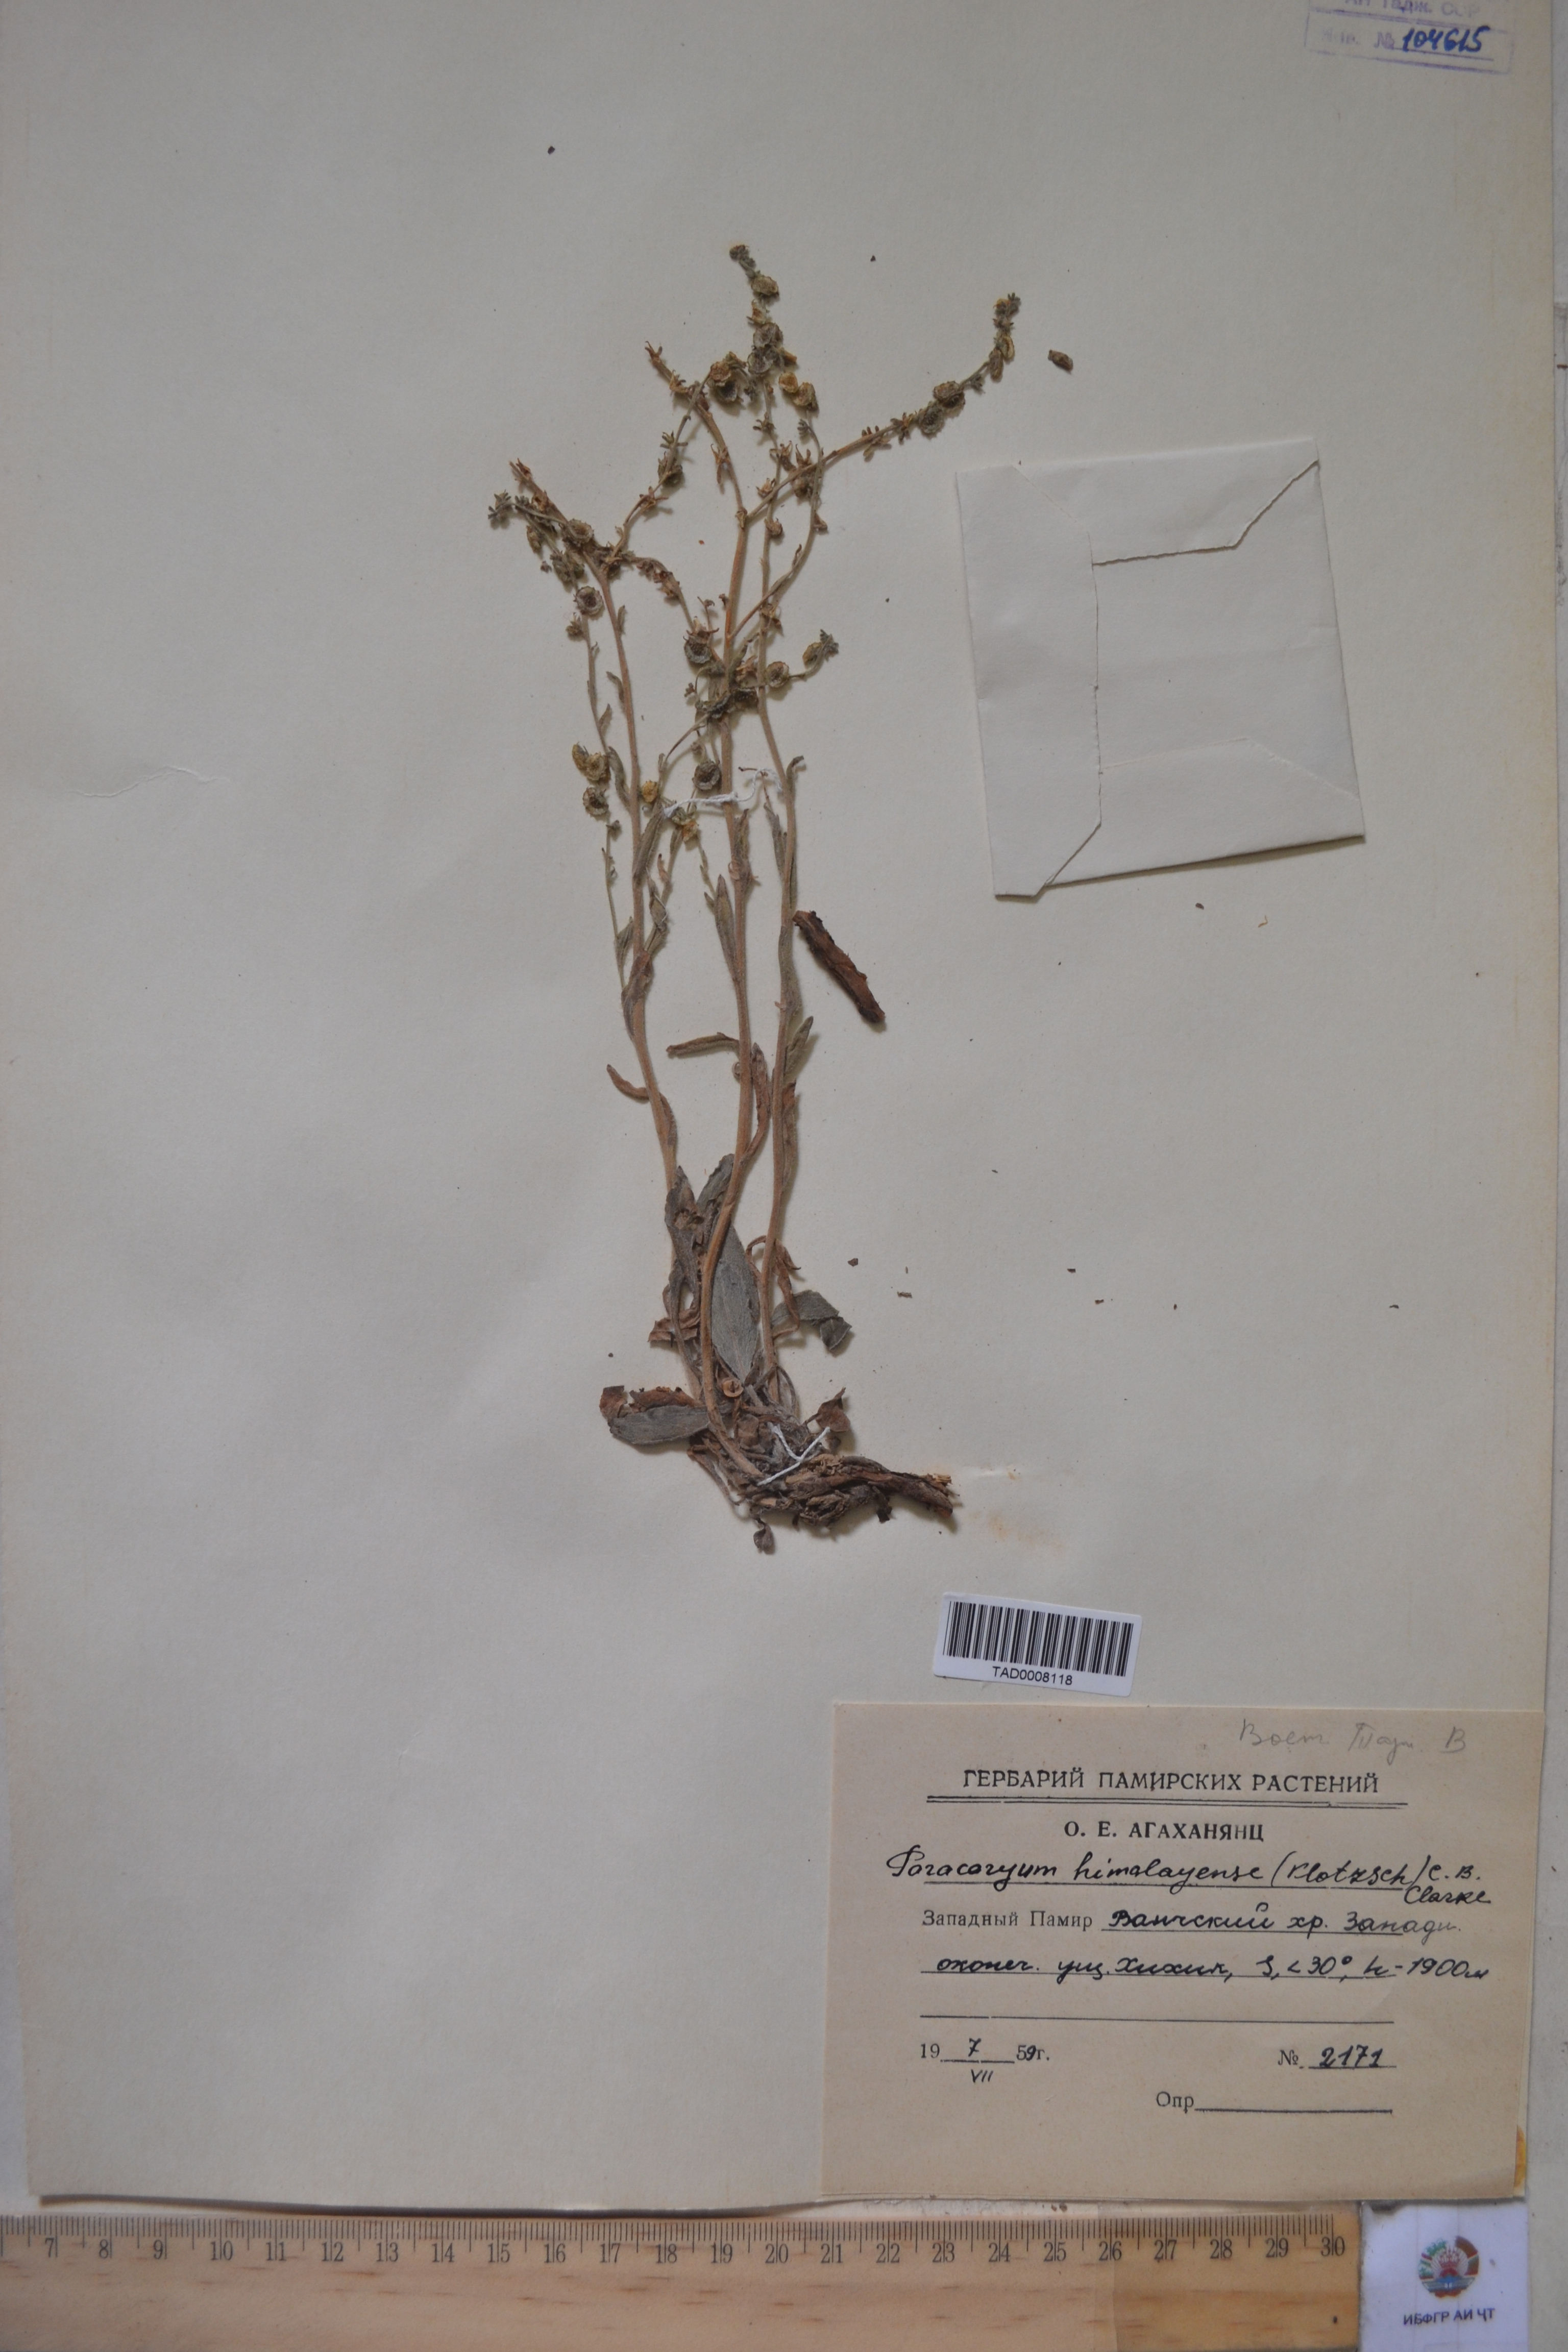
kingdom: Plantae
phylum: Tracheophyta
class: Magnoliopsida
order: Boraginales
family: Boraginaceae
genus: Paracaryum
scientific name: Paracaryum himalayense
